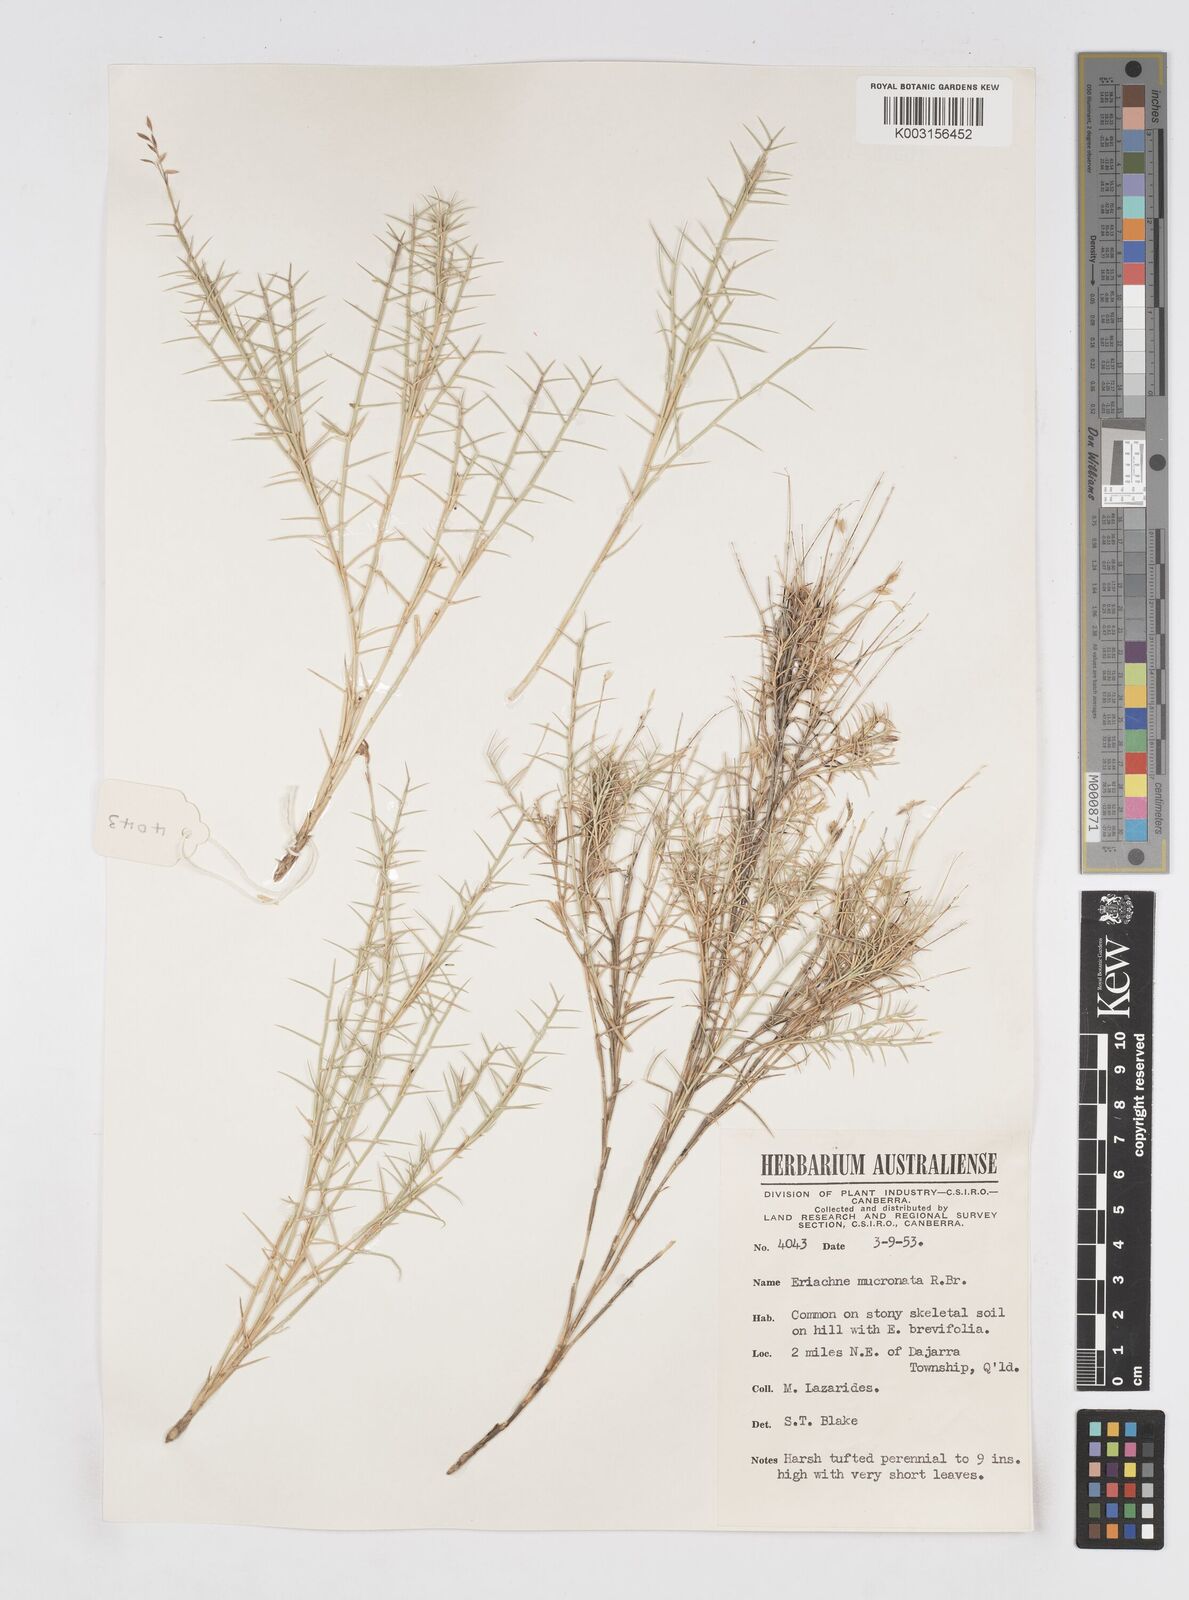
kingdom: Plantae
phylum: Tracheophyta
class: Liliopsida
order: Poales
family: Poaceae
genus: Eriachne
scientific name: Eriachne mucronata
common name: Mountain wanderrie grass
